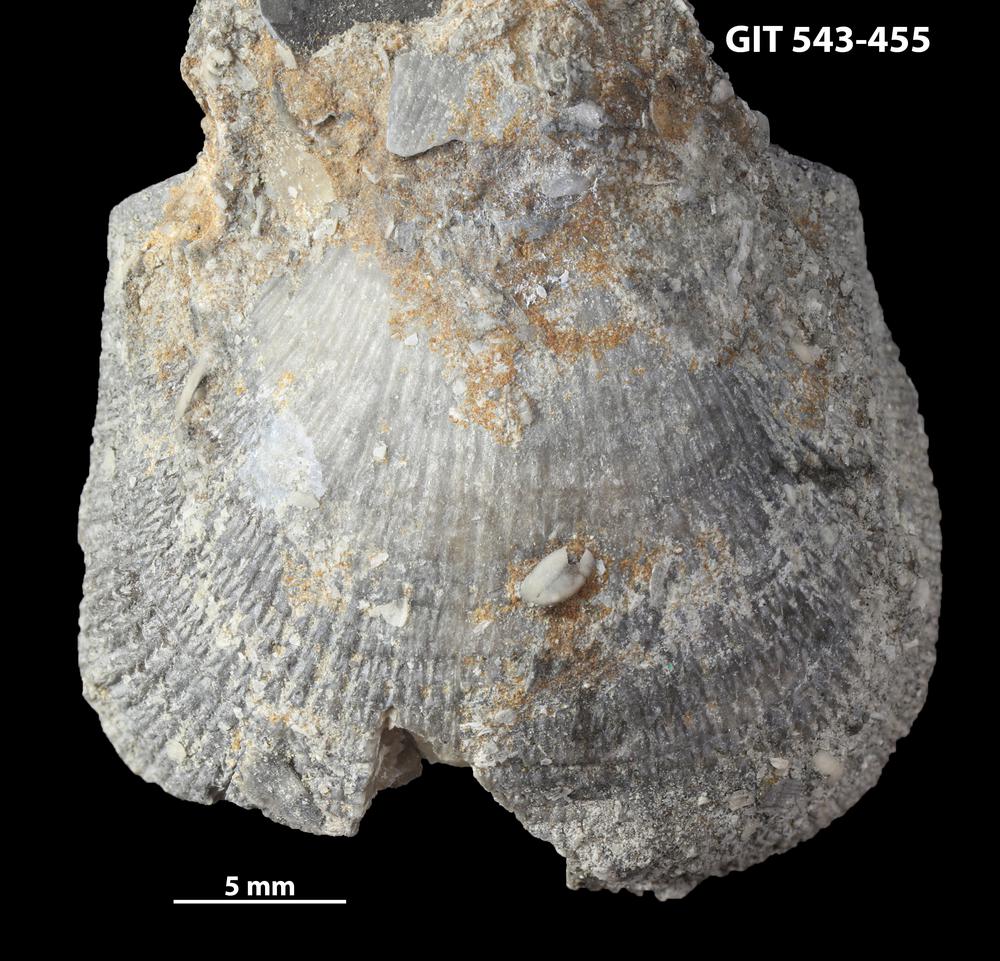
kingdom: Animalia
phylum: Brachiopoda
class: Rhynchonellata
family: Clitambonitidae
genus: Clitambonites
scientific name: Clitambonites squamatus
